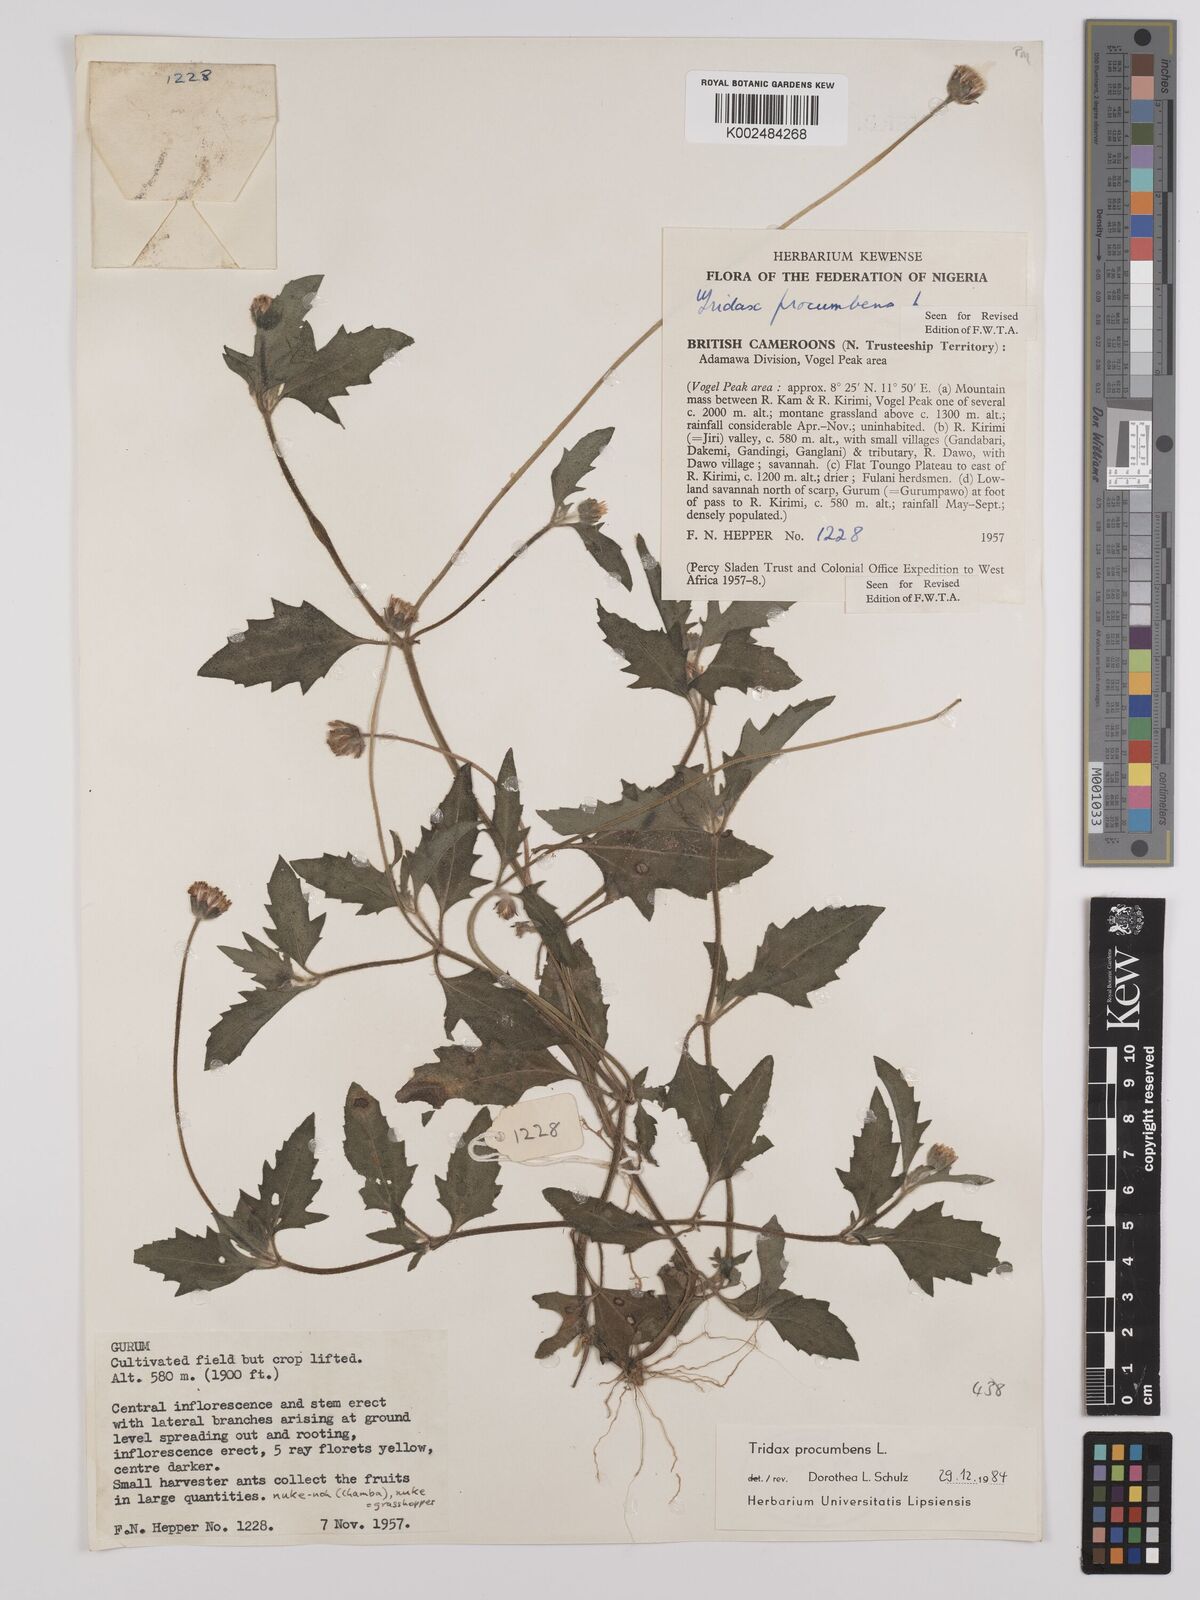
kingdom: Plantae
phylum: Tracheophyta
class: Magnoliopsida
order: Asterales
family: Asteraceae
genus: Tridax
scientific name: Tridax procumbens
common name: Coatbuttons
